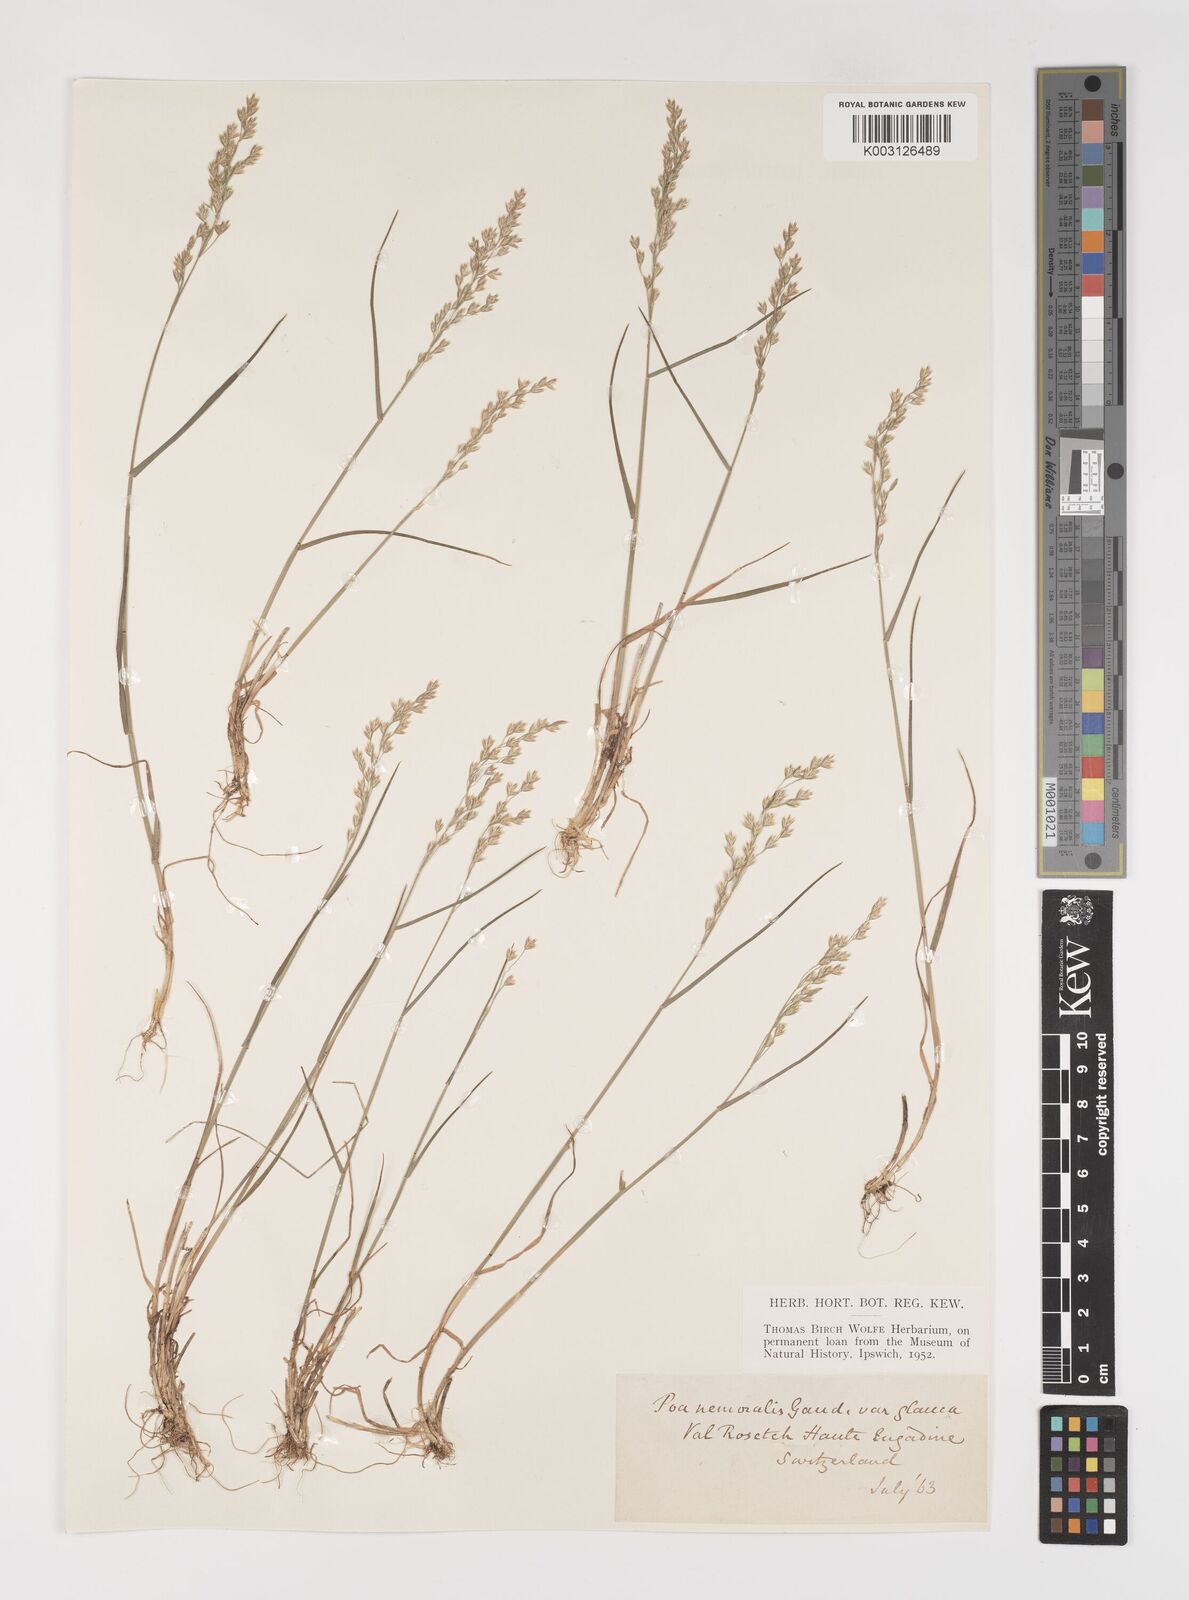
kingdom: Plantae
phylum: Tracheophyta
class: Liliopsida
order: Poales
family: Poaceae
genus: Poa
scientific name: Poa nemoralis
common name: Wood bluegrass
